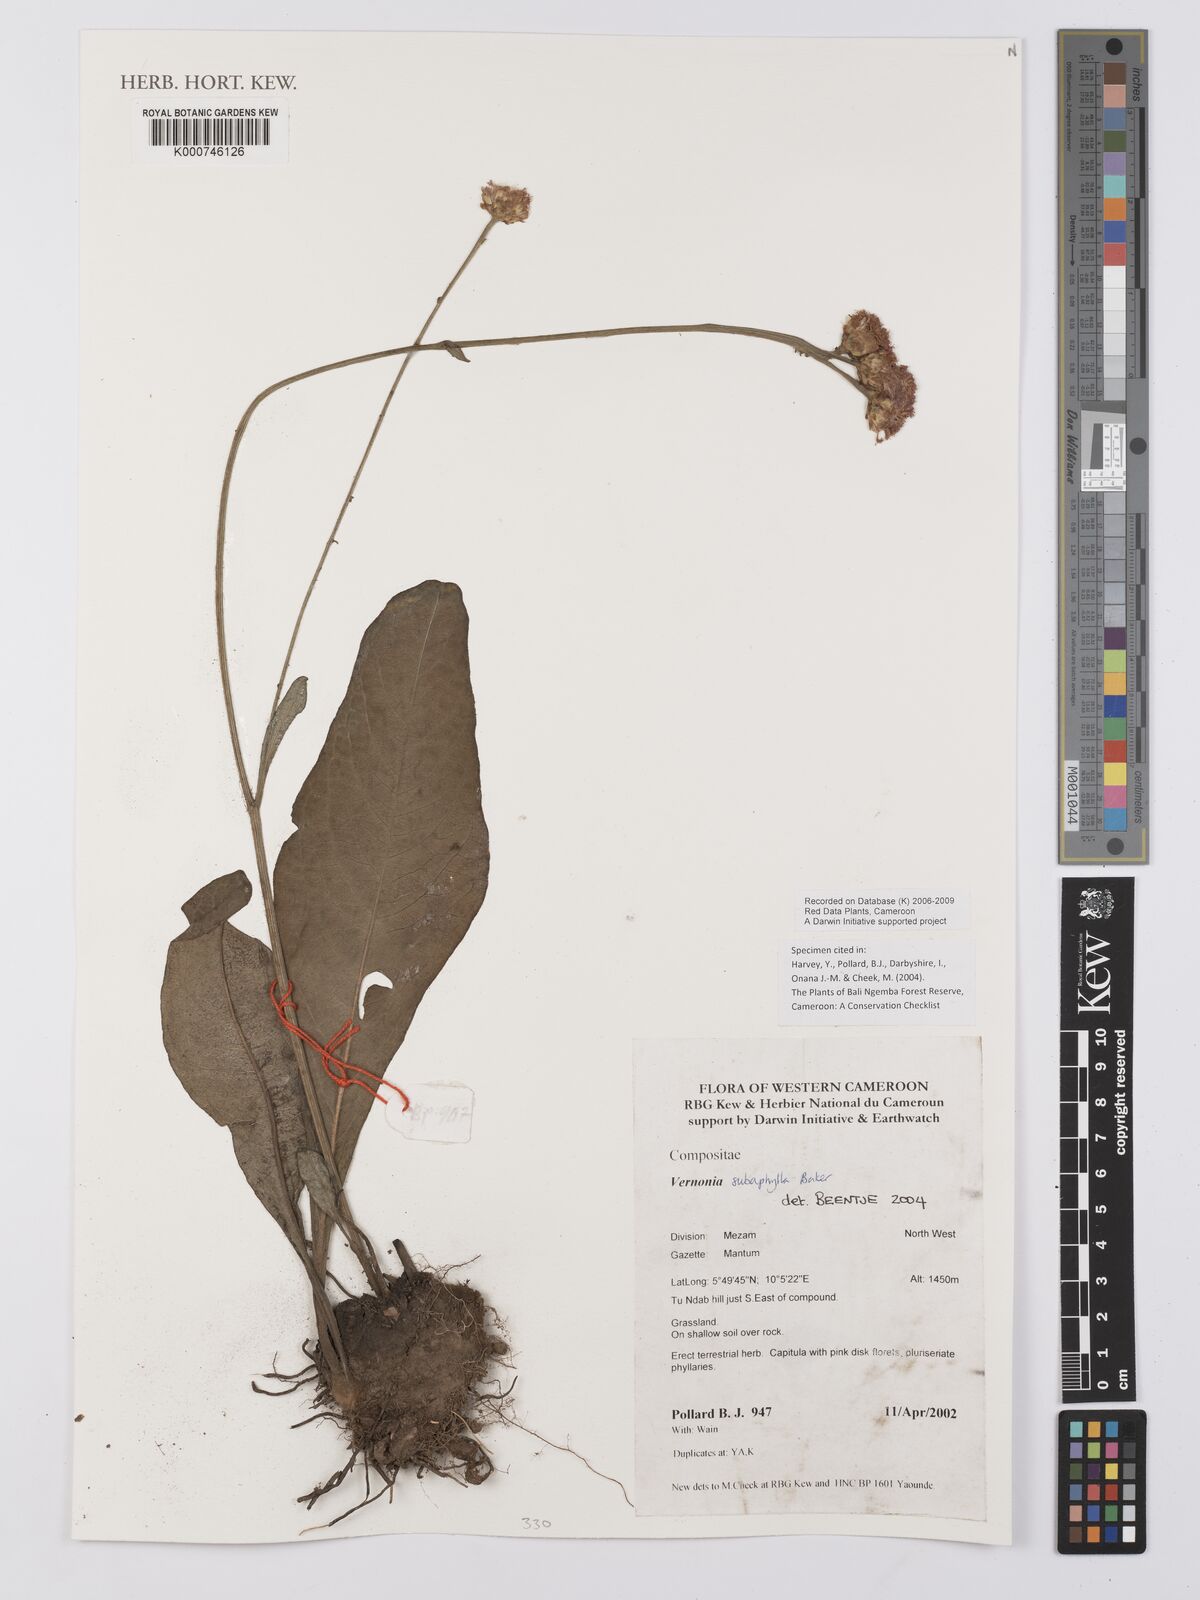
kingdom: Plantae
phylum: Tracheophyta
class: Magnoliopsida
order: Asterales
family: Asteraceae
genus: Vernonella
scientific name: Vernonella subaphylla
